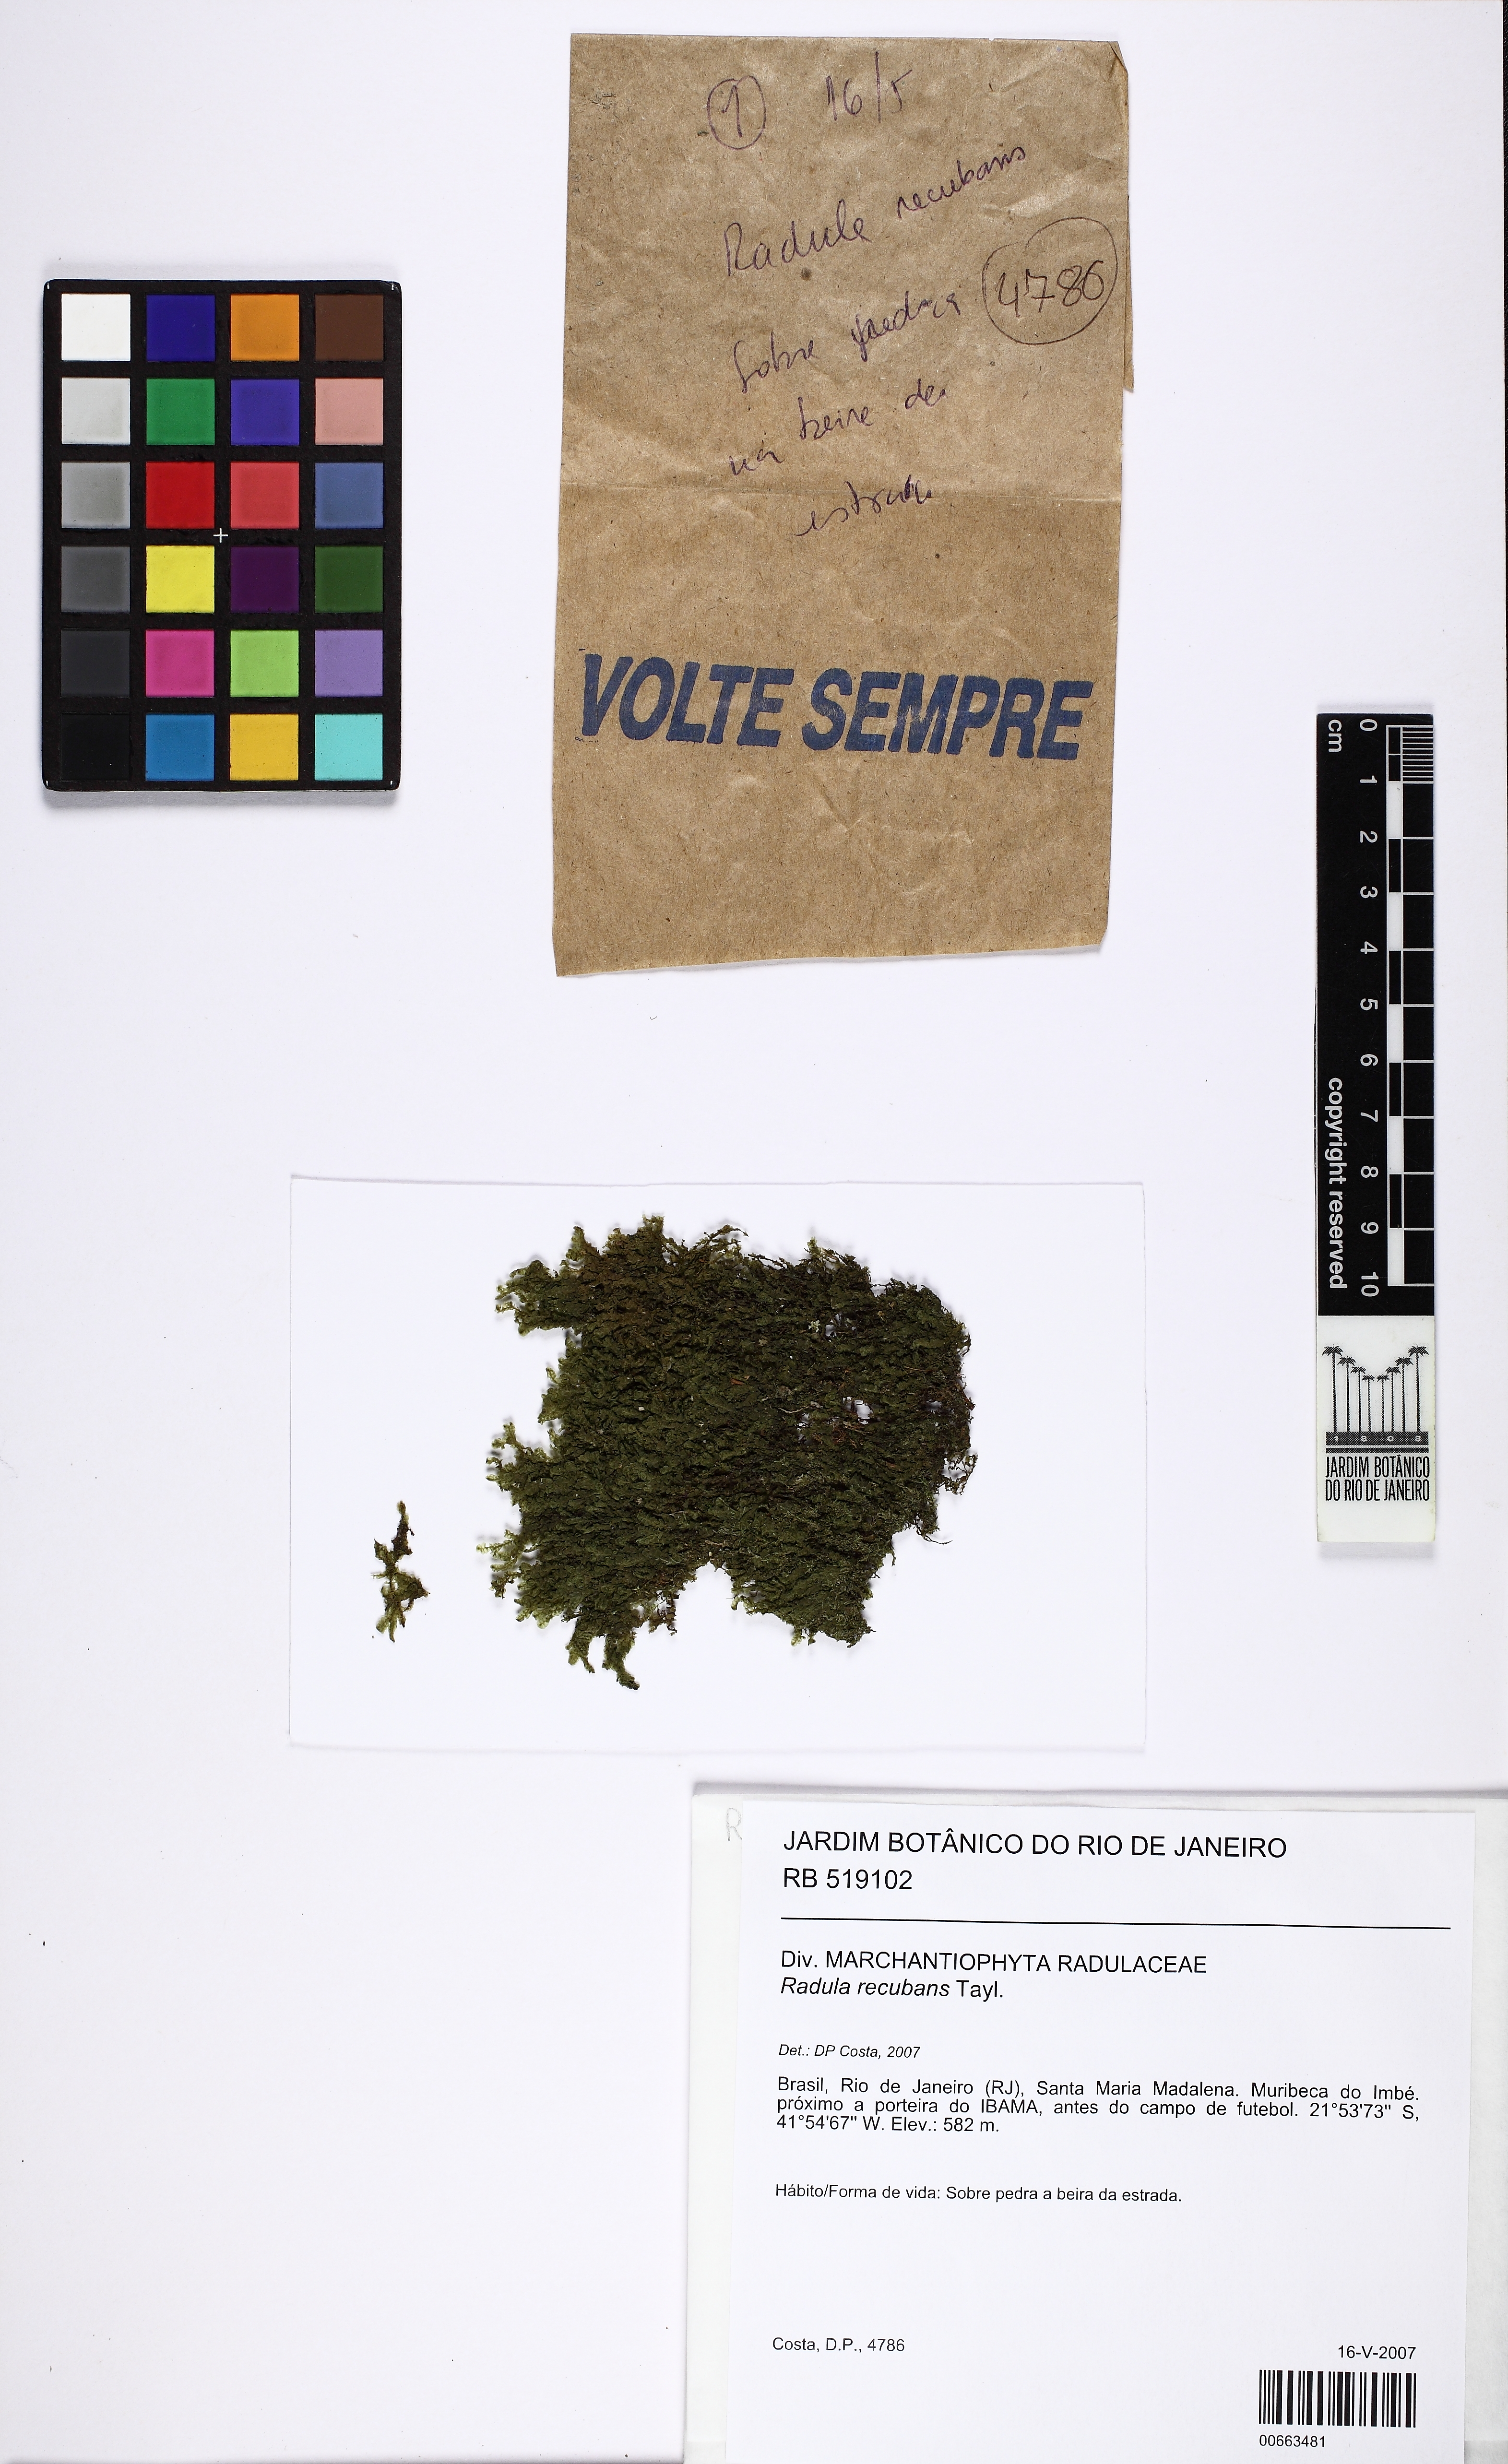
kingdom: Plantae
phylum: Marchantiophyta
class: Jungermanniopsida
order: Porellales
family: Radulaceae
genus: Radula
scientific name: Radula recubans
